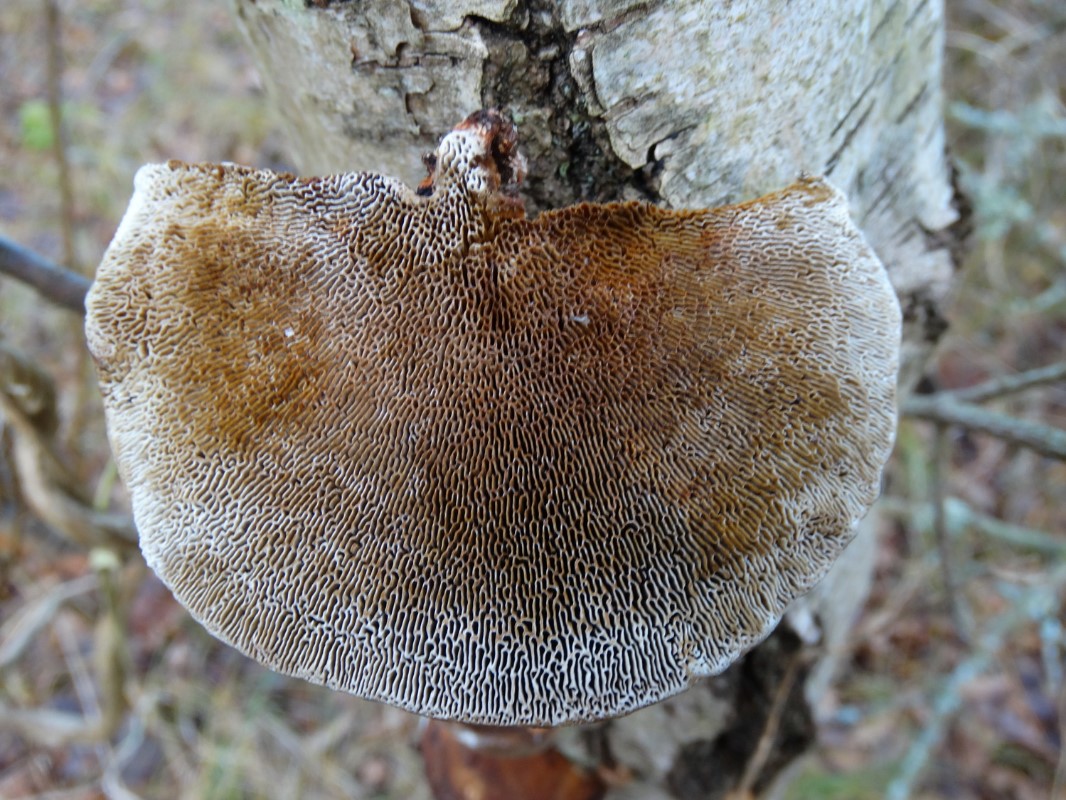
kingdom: Fungi
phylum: Basidiomycota
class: Agaricomycetes
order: Polyporales
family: Polyporaceae
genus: Daedaleopsis
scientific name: Daedaleopsis confragosa
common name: rødmende læderporesvamp
